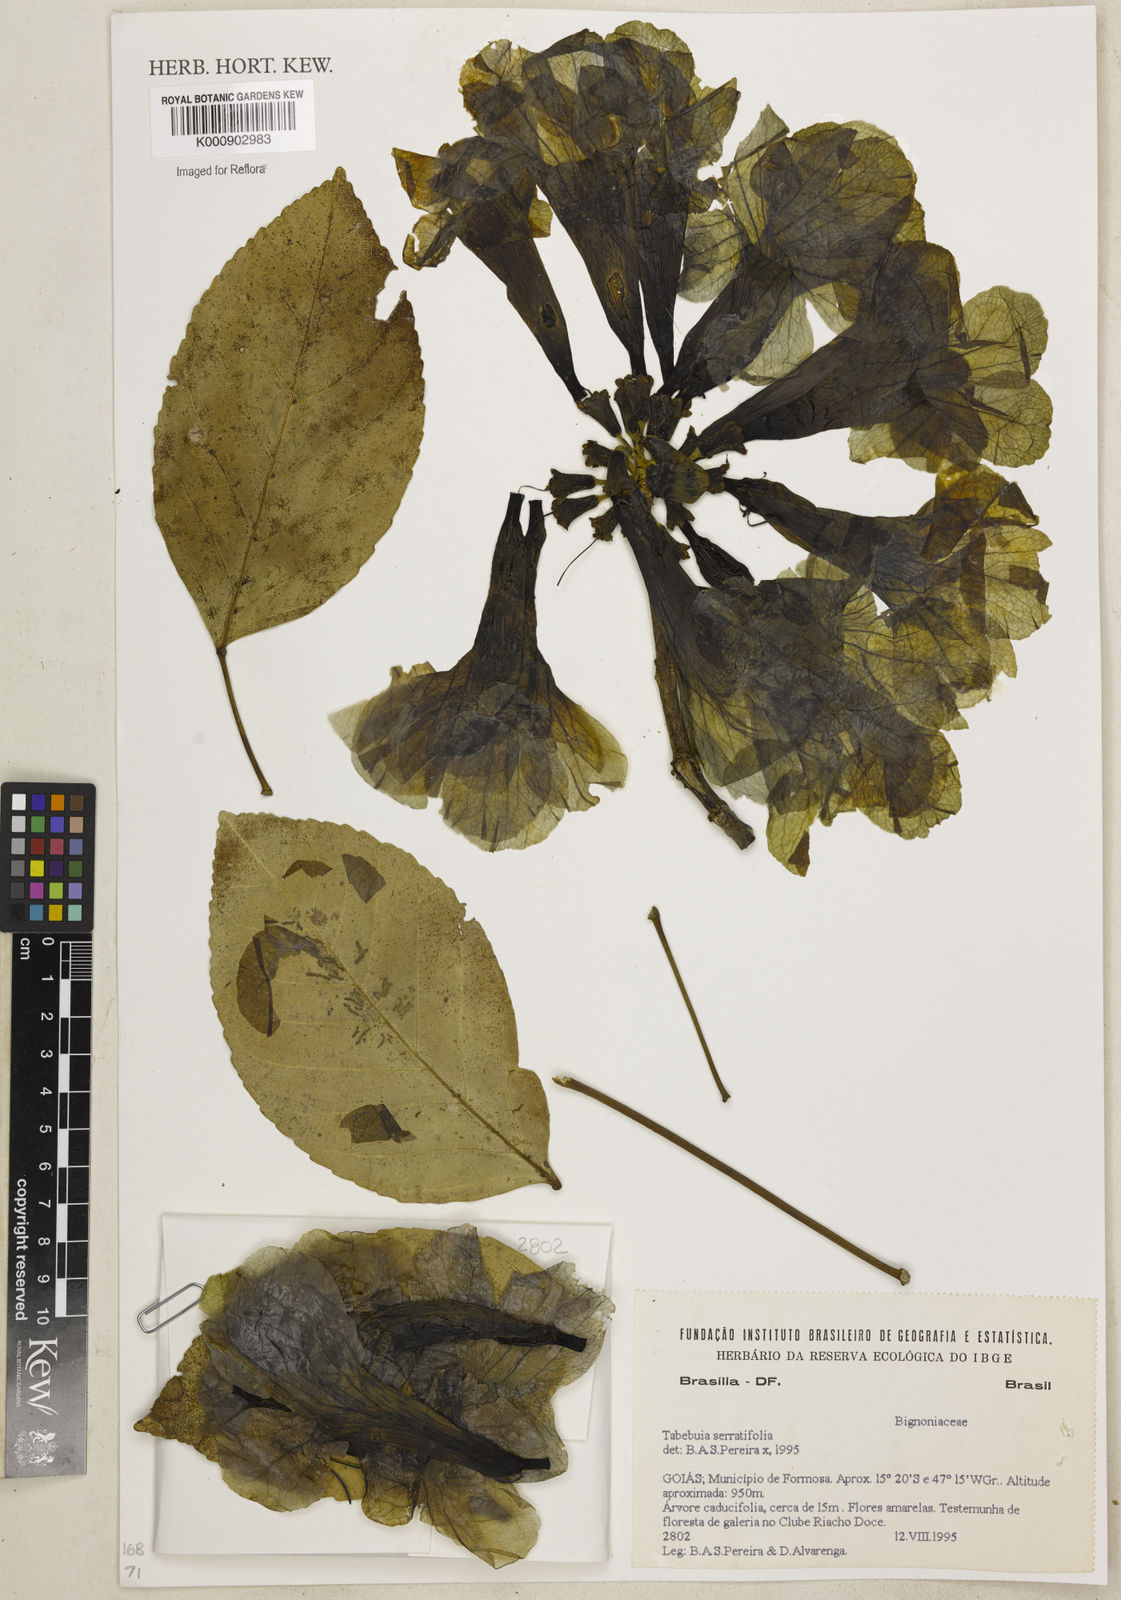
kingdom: Plantae
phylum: Tracheophyta
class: Magnoliopsida
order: Lamiales
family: Bignoniaceae
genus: Handroanthus
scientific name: Handroanthus serratifolius
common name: Yellow ipe
